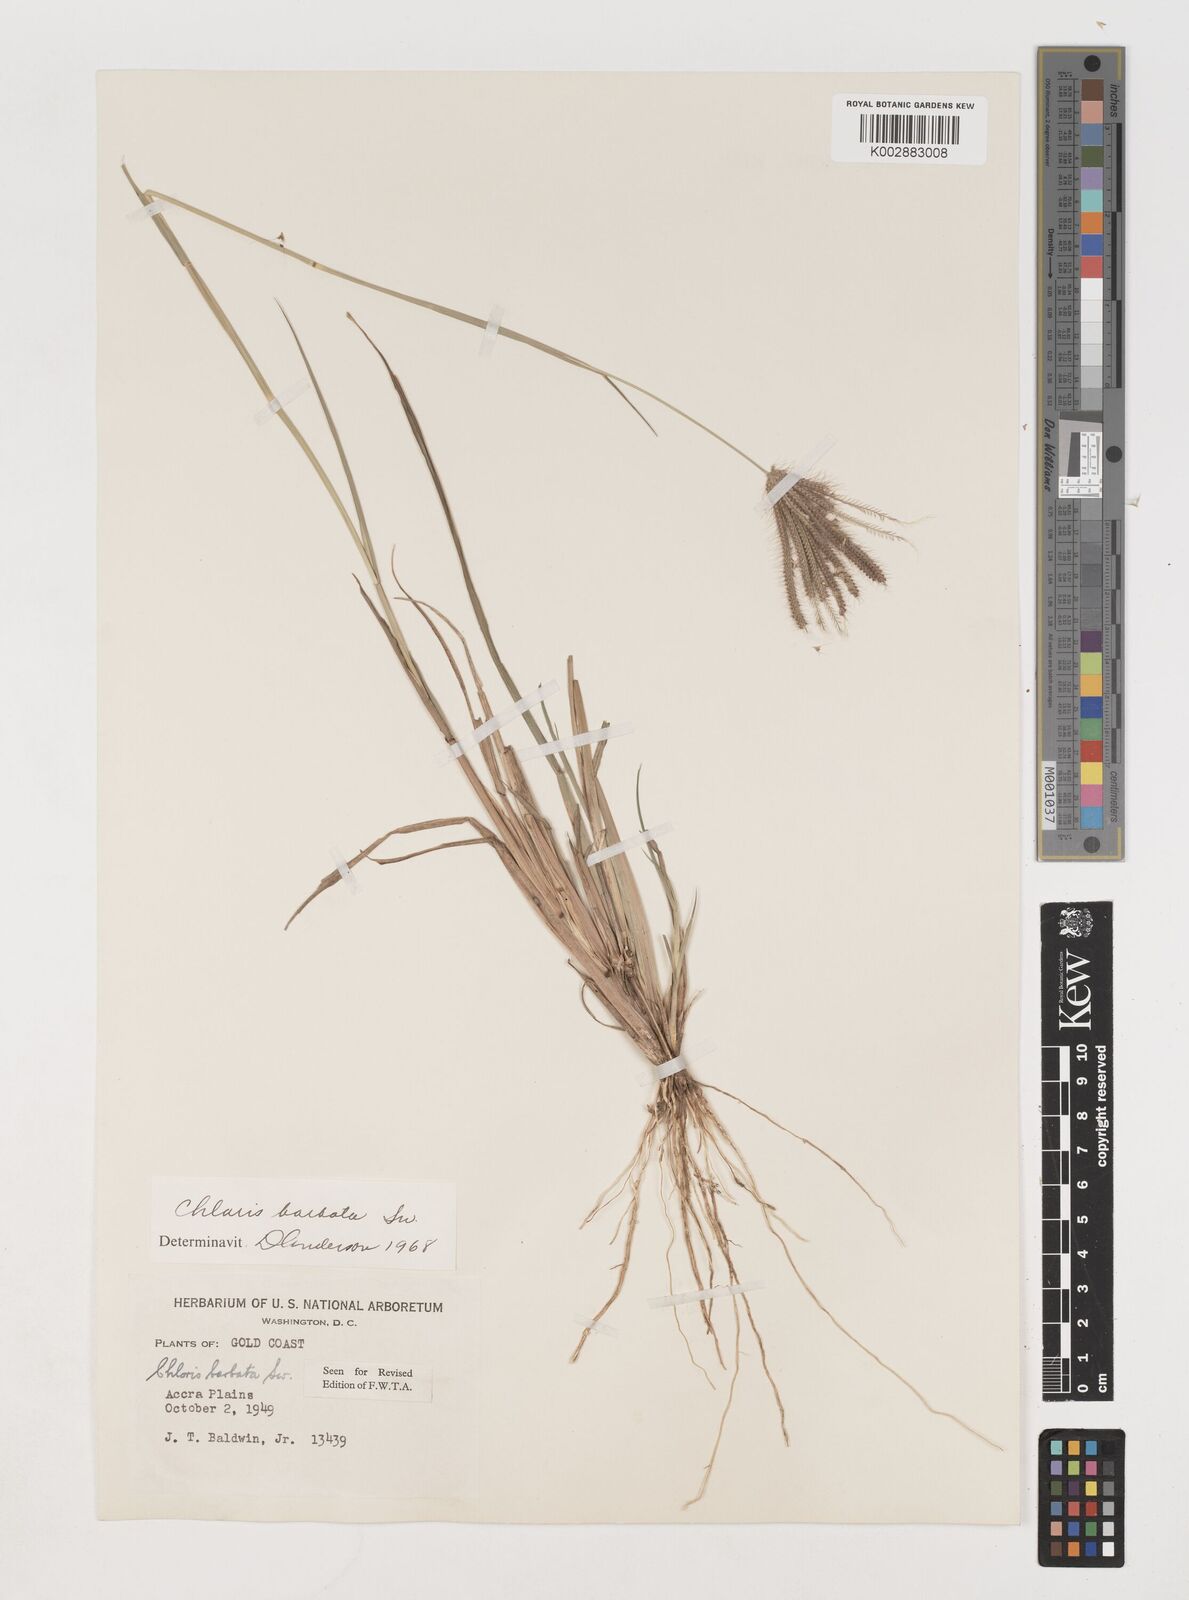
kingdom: Plantae
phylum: Tracheophyta
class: Liliopsida
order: Poales
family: Poaceae
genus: Chloris
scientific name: Chloris barbata
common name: Swollen fingergrass
